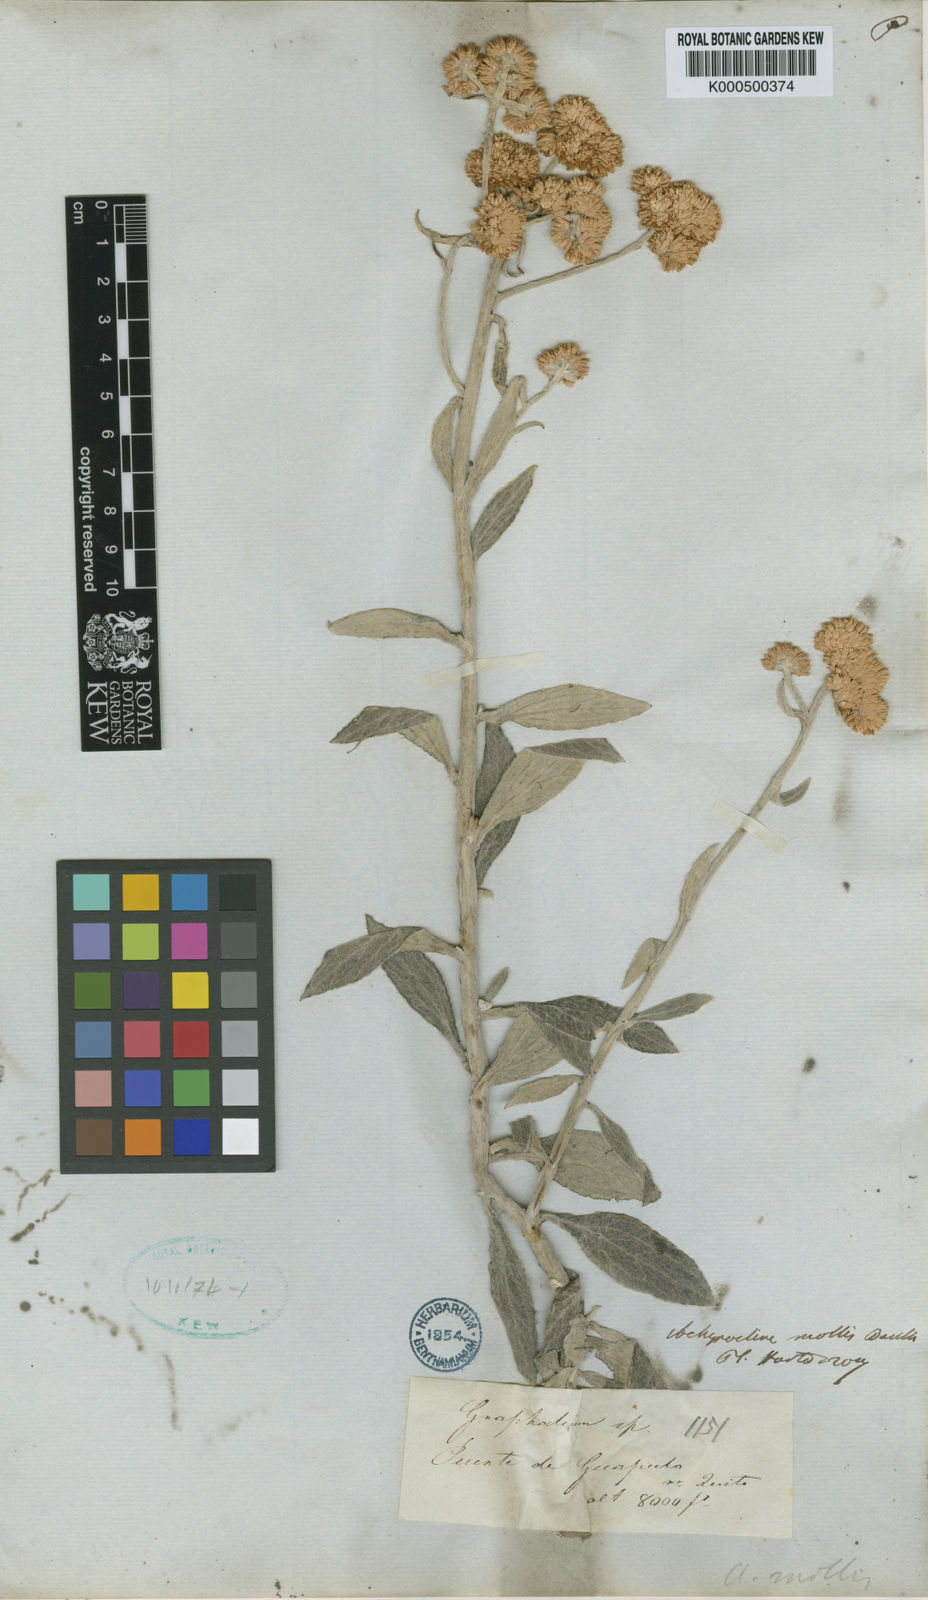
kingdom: Plantae
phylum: Tracheophyta
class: Magnoliopsida
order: Asterales
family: Asteraceae
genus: Achyrocline
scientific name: Achyrocline mollis
